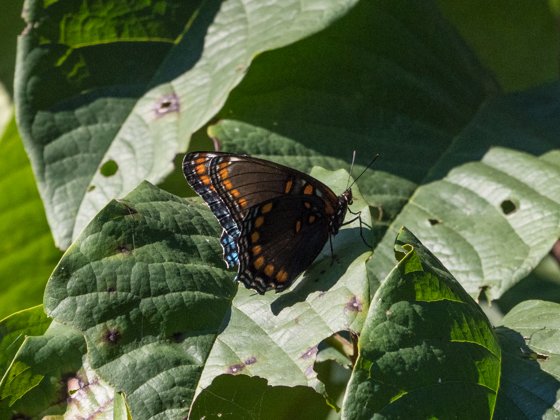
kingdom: Animalia
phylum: Arthropoda
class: Insecta
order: Lepidoptera
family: Nymphalidae
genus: Limenitis
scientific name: Limenitis astyanax
